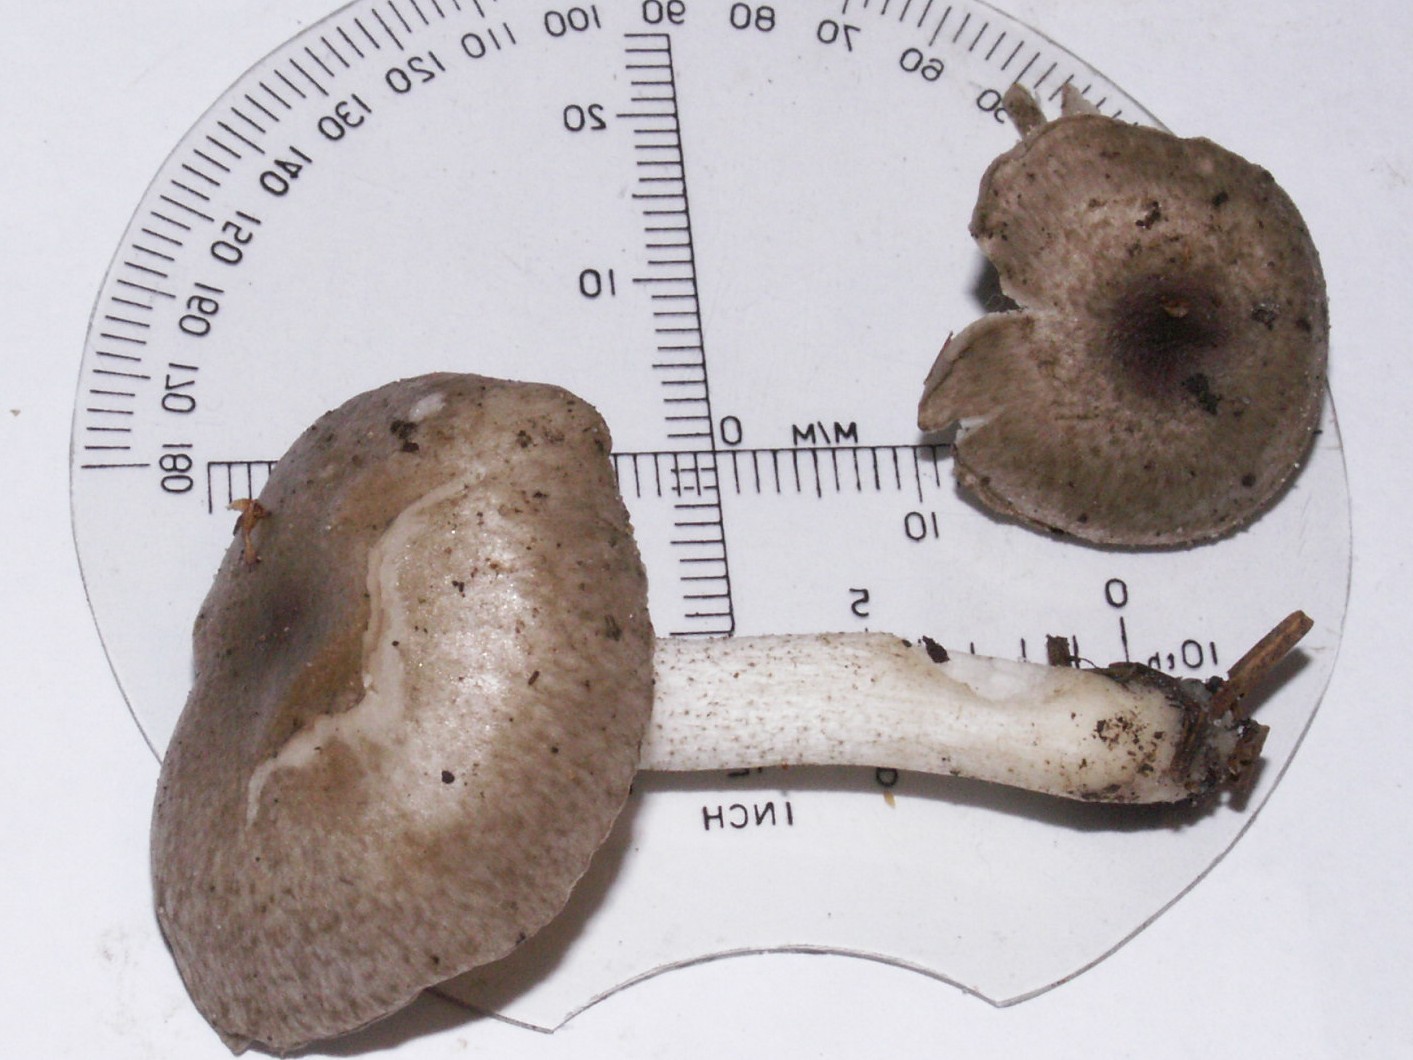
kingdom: Fungi
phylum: Basidiomycota
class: Agaricomycetes
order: Agaricales
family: Hygrophoraceae
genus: Hygrophorus
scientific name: Hygrophorus pustulatus
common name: mørkprikket sneglehat
